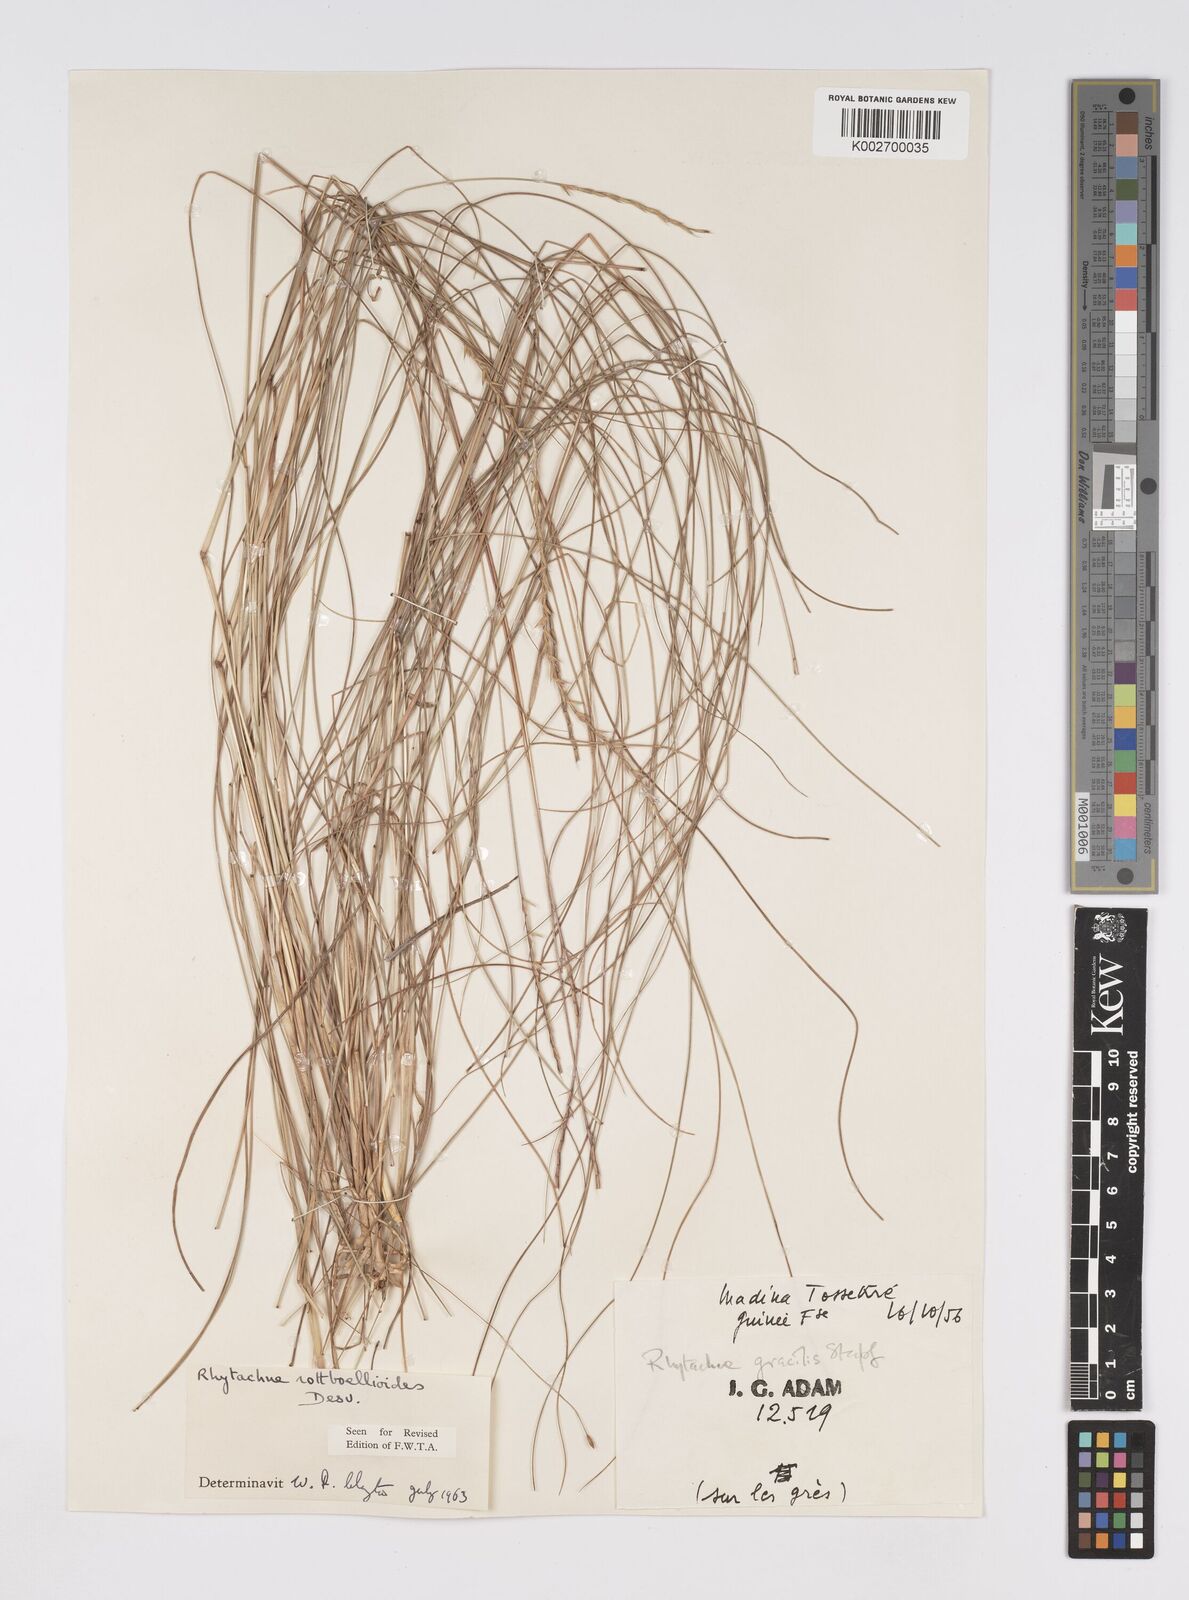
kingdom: Plantae
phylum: Tracheophyta
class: Liliopsida
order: Poales
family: Poaceae
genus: Rhytachne
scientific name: Rhytachne rottboellioides
